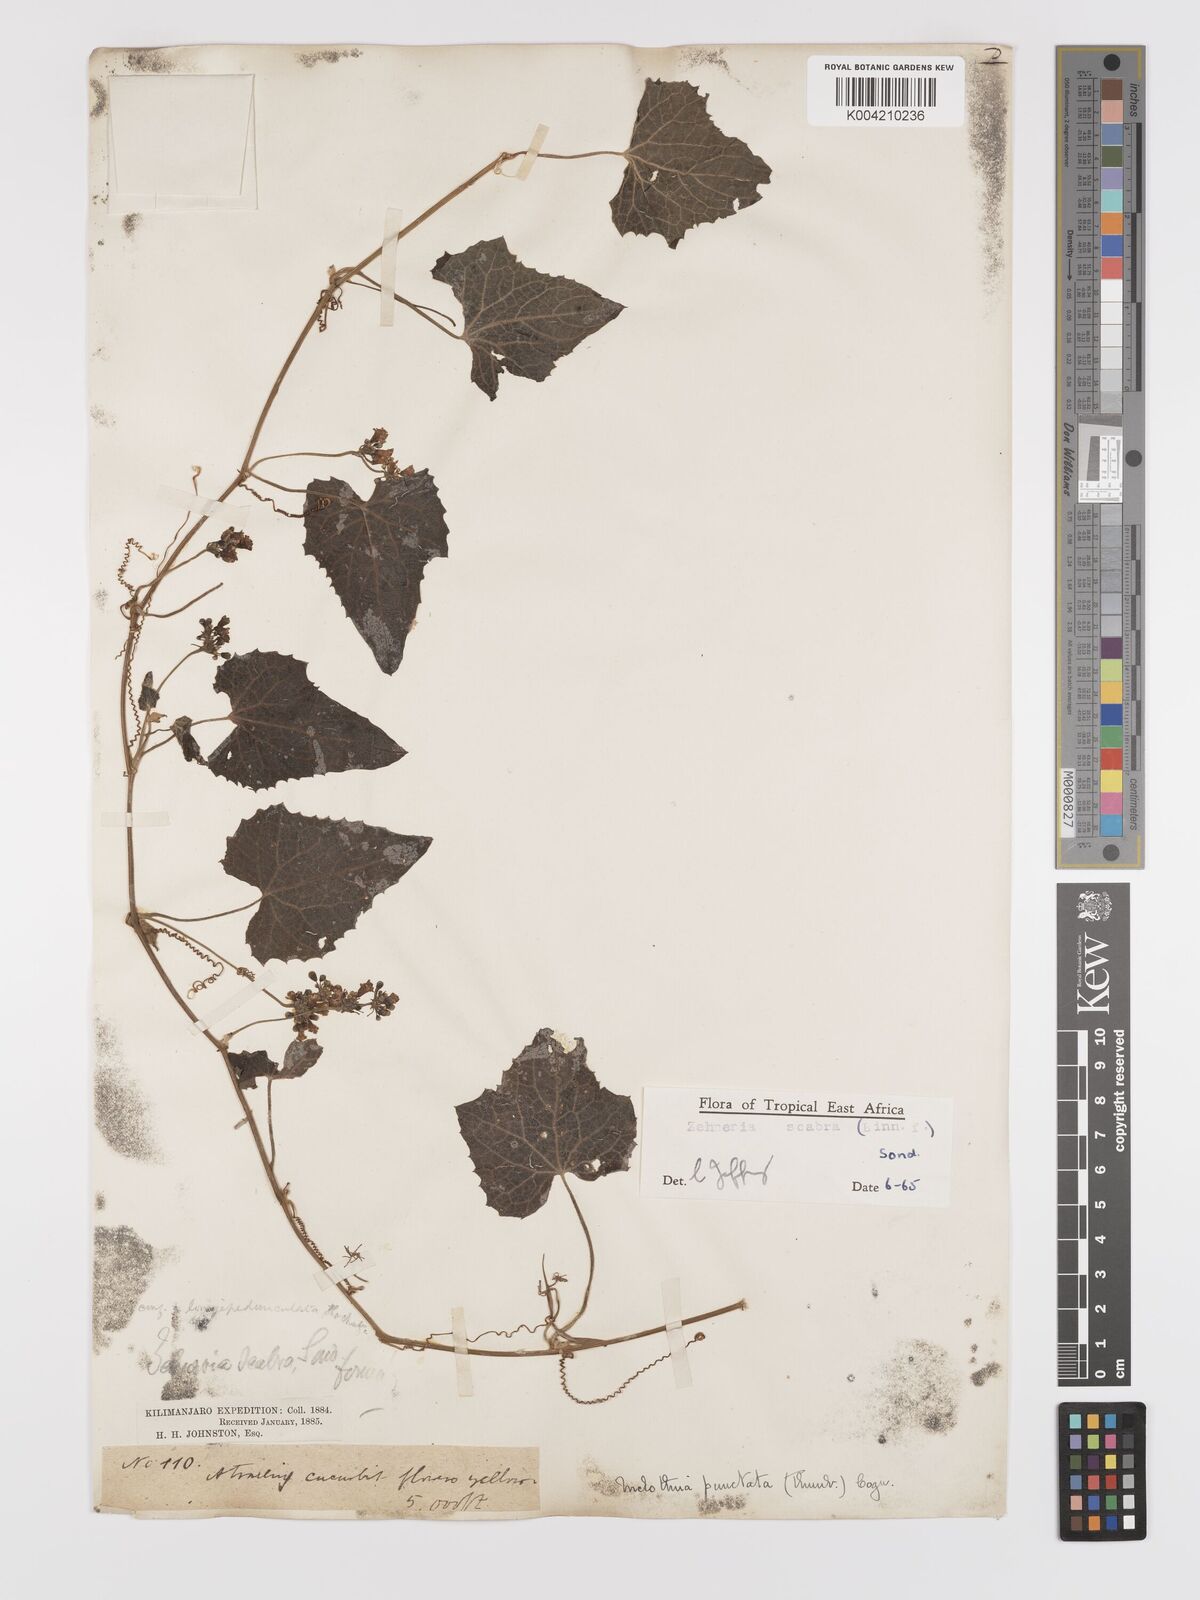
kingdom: Plantae
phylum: Tracheophyta
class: Magnoliopsida
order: Cucurbitales
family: Cucurbitaceae
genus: Zehneria
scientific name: Zehneria scabra
